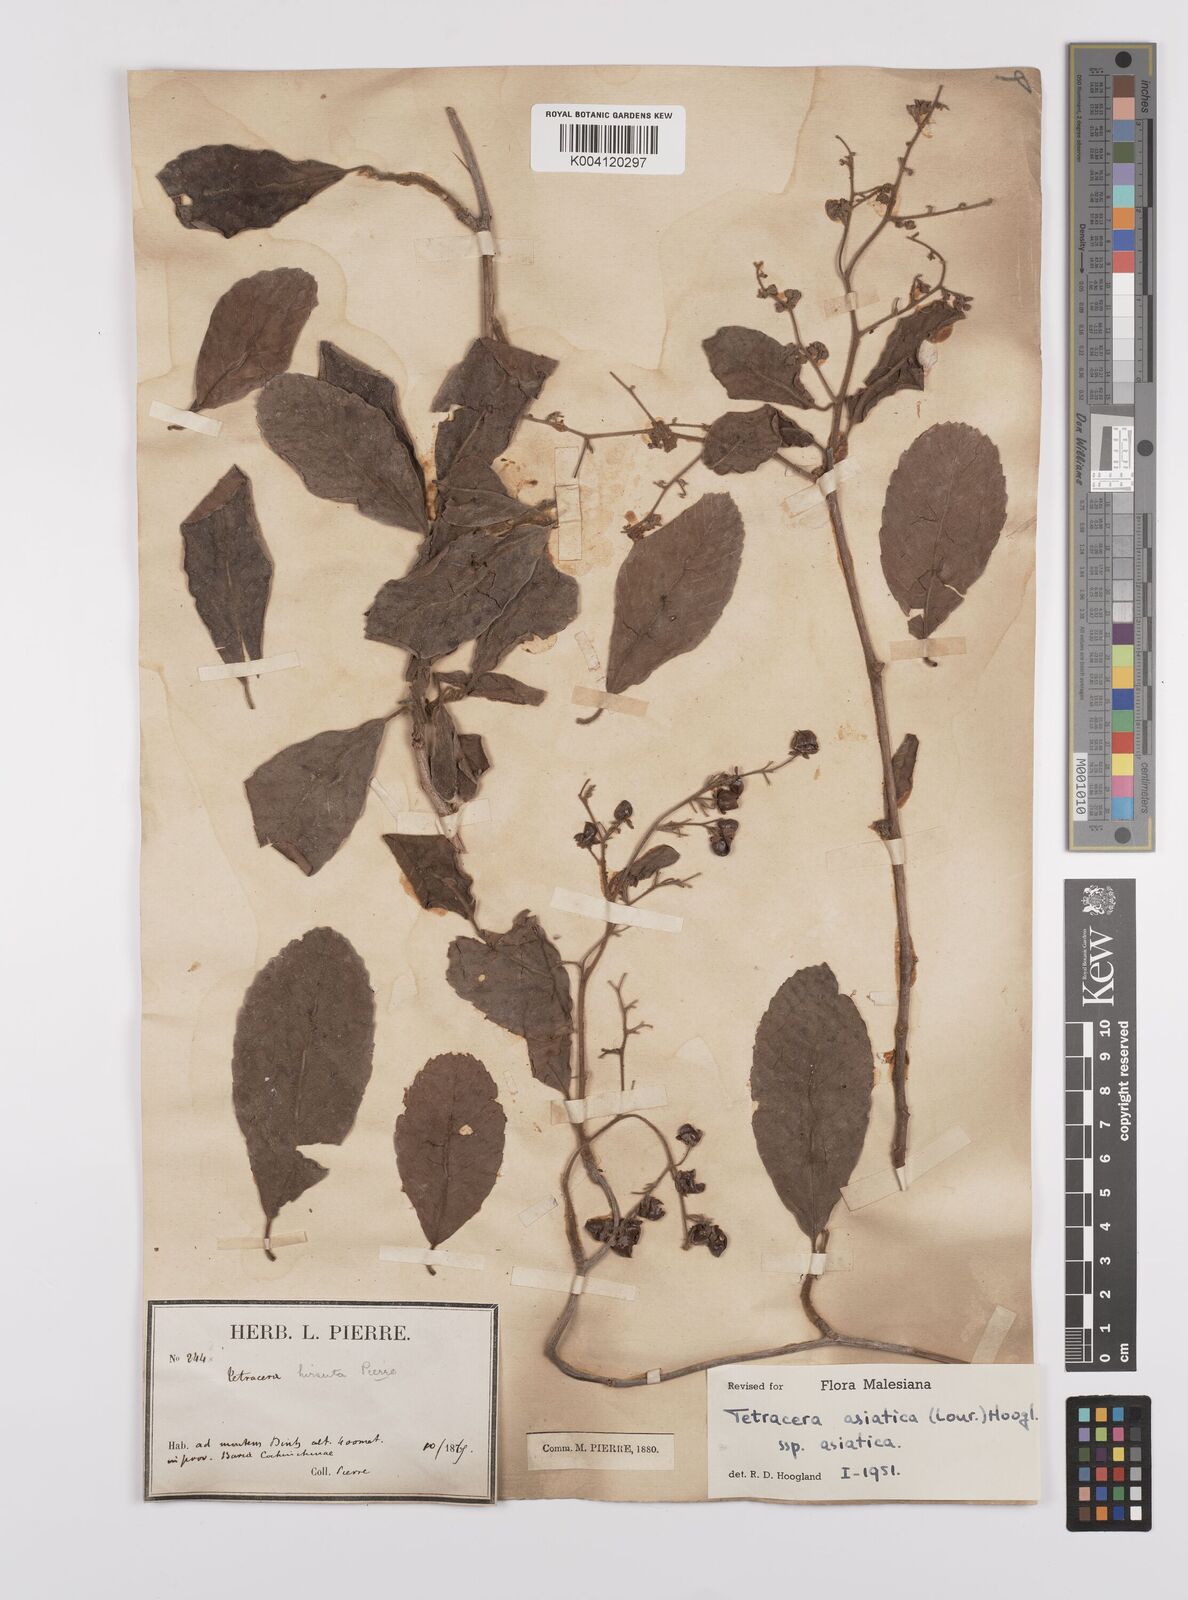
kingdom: Plantae
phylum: Tracheophyta
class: Magnoliopsida
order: Dilleniales
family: Dilleniaceae
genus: Tetracera
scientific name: Tetracera sarmentosa
